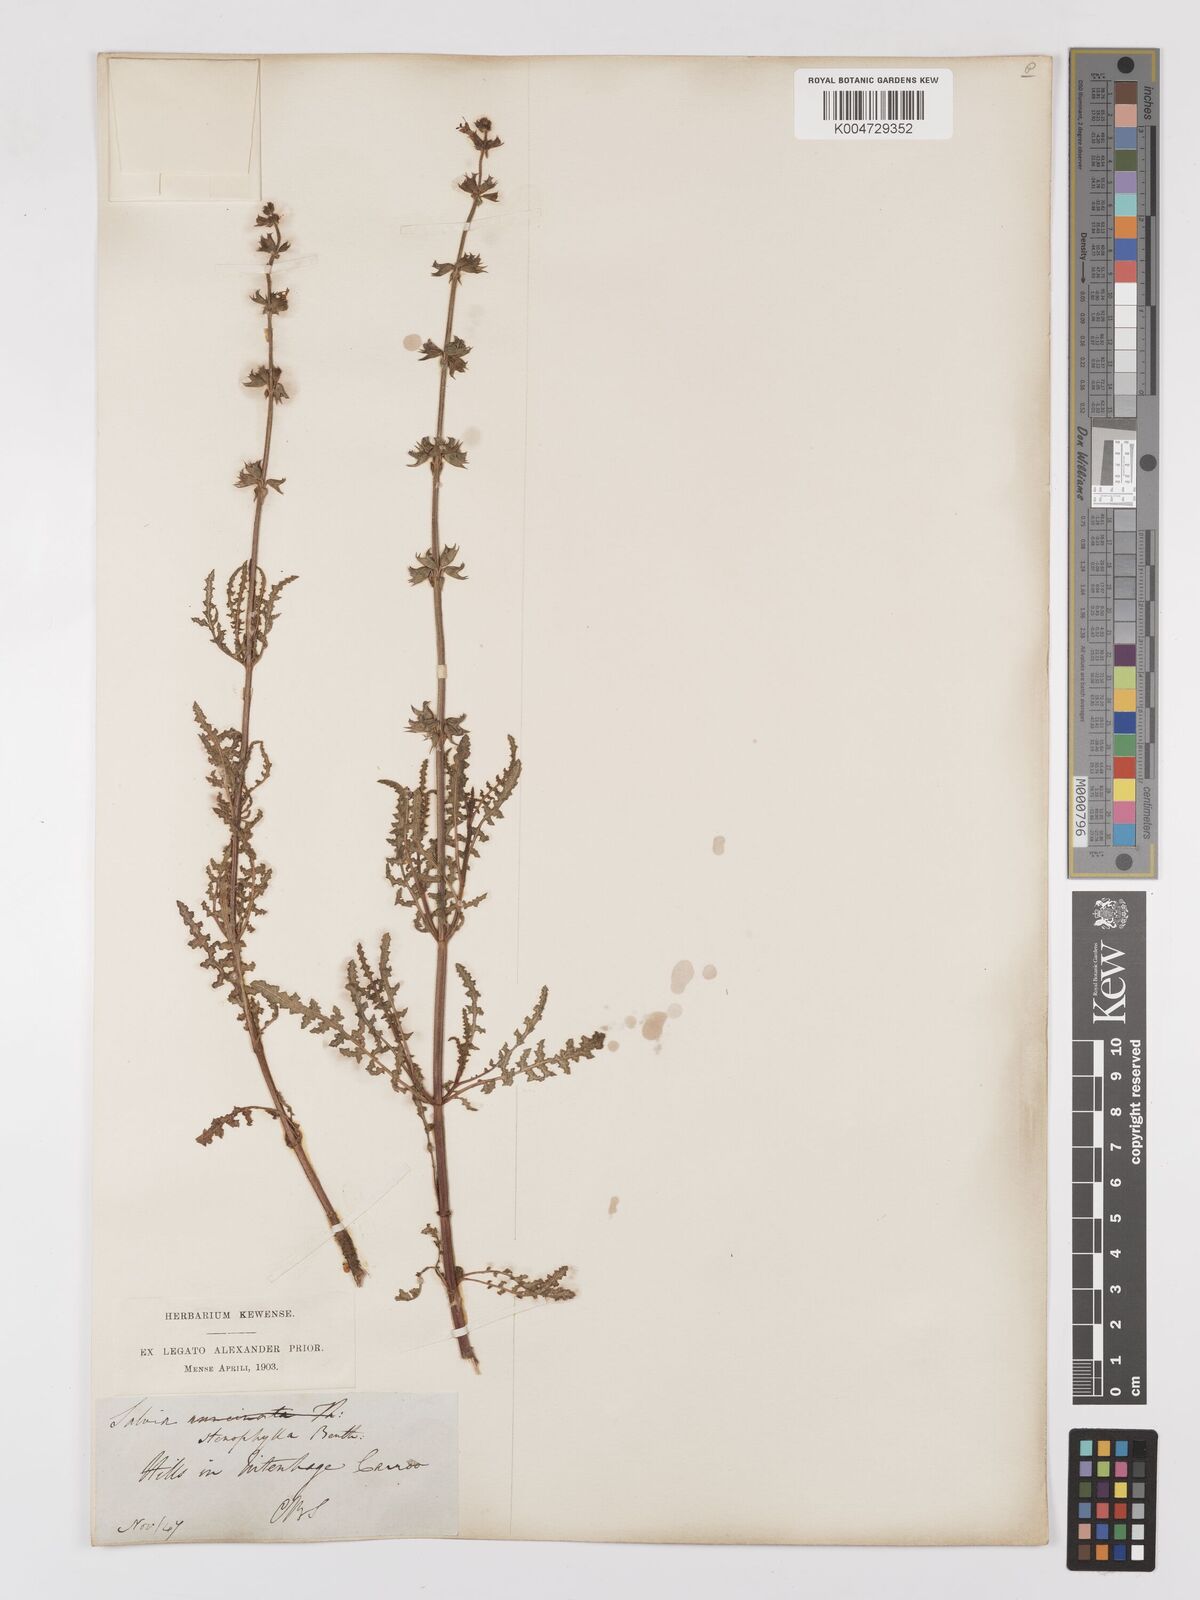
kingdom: Plantae
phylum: Tracheophyta
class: Magnoliopsida
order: Lamiales
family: Lamiaceae
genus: Salvia
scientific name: Salvia stenophylla
